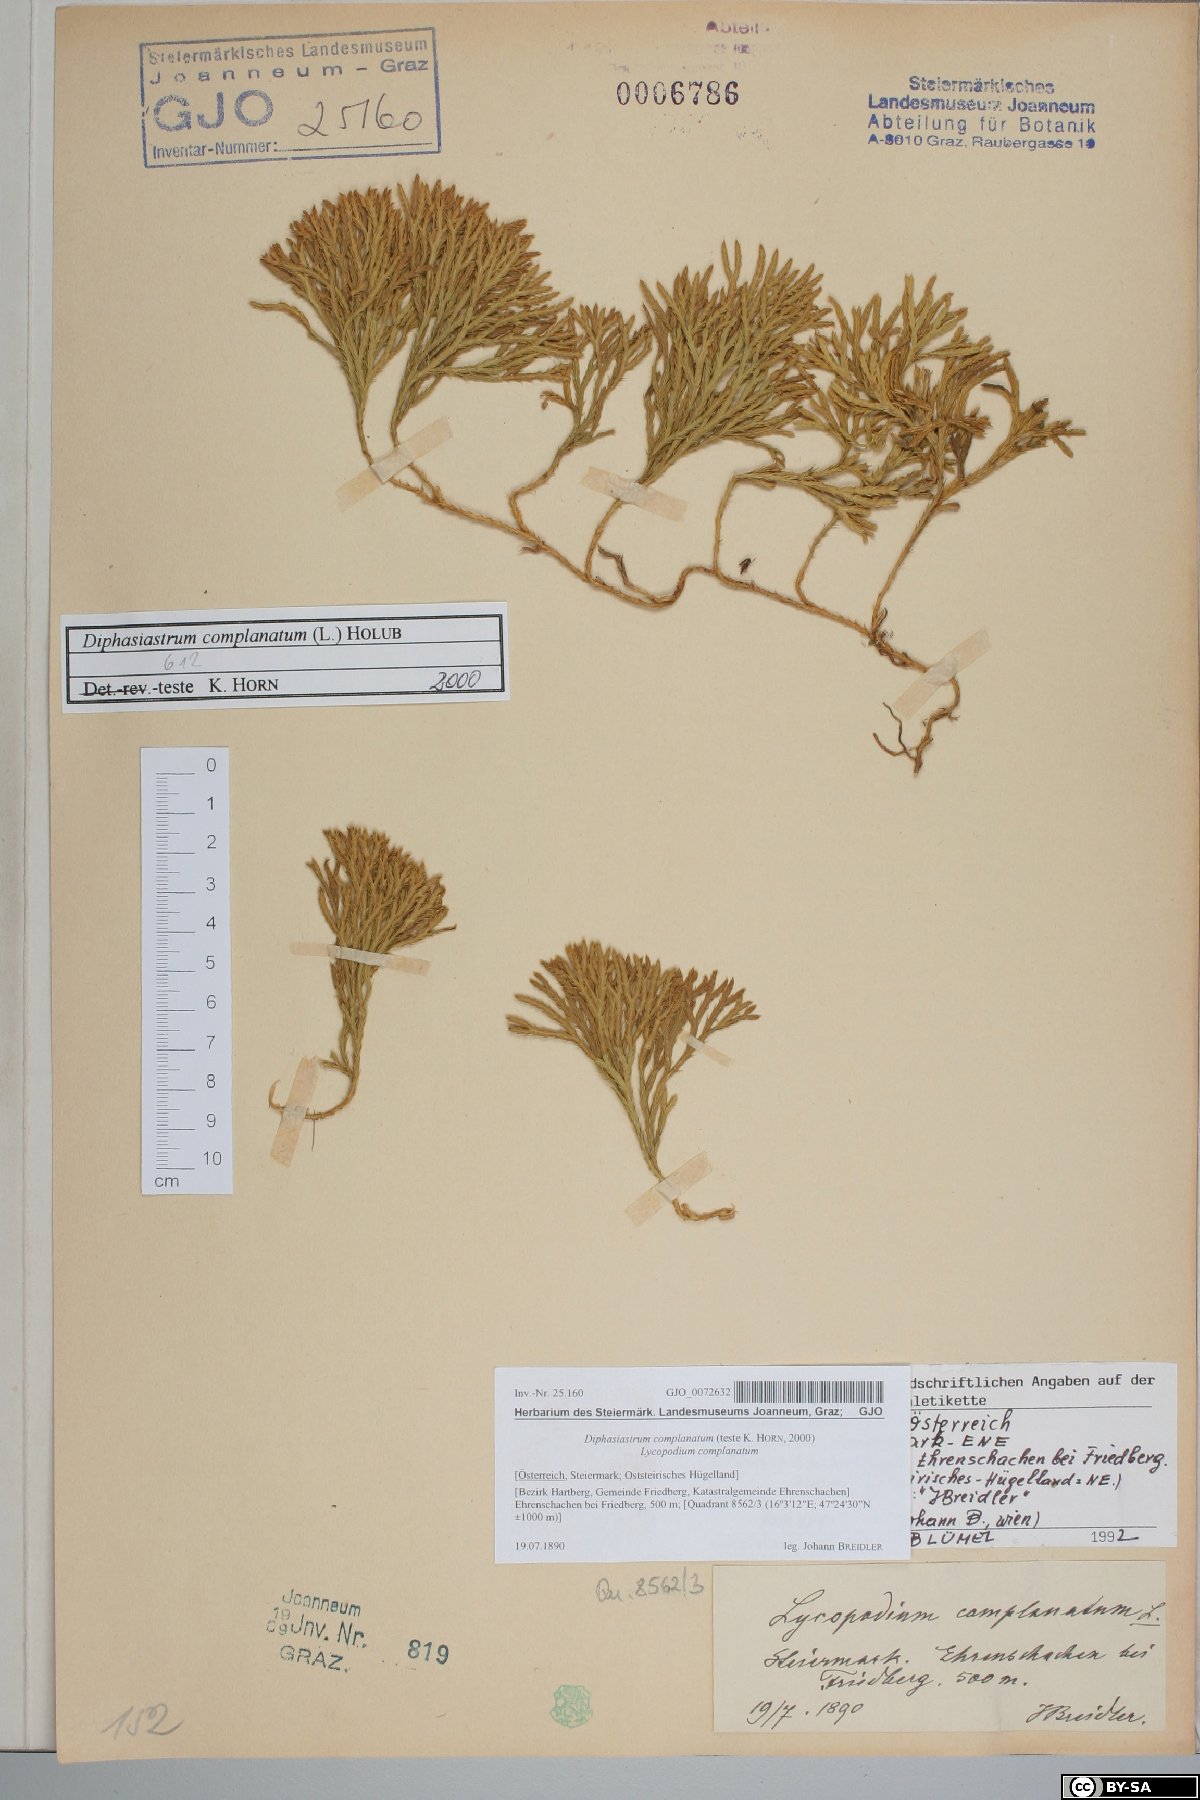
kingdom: Plantae
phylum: Tracheophyta
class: Lycopodiopsida
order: Lycopodiales
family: Lycopodiaceae
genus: Diphasiastrum
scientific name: Diphasiastrum complanatum
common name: Northern running-pine
